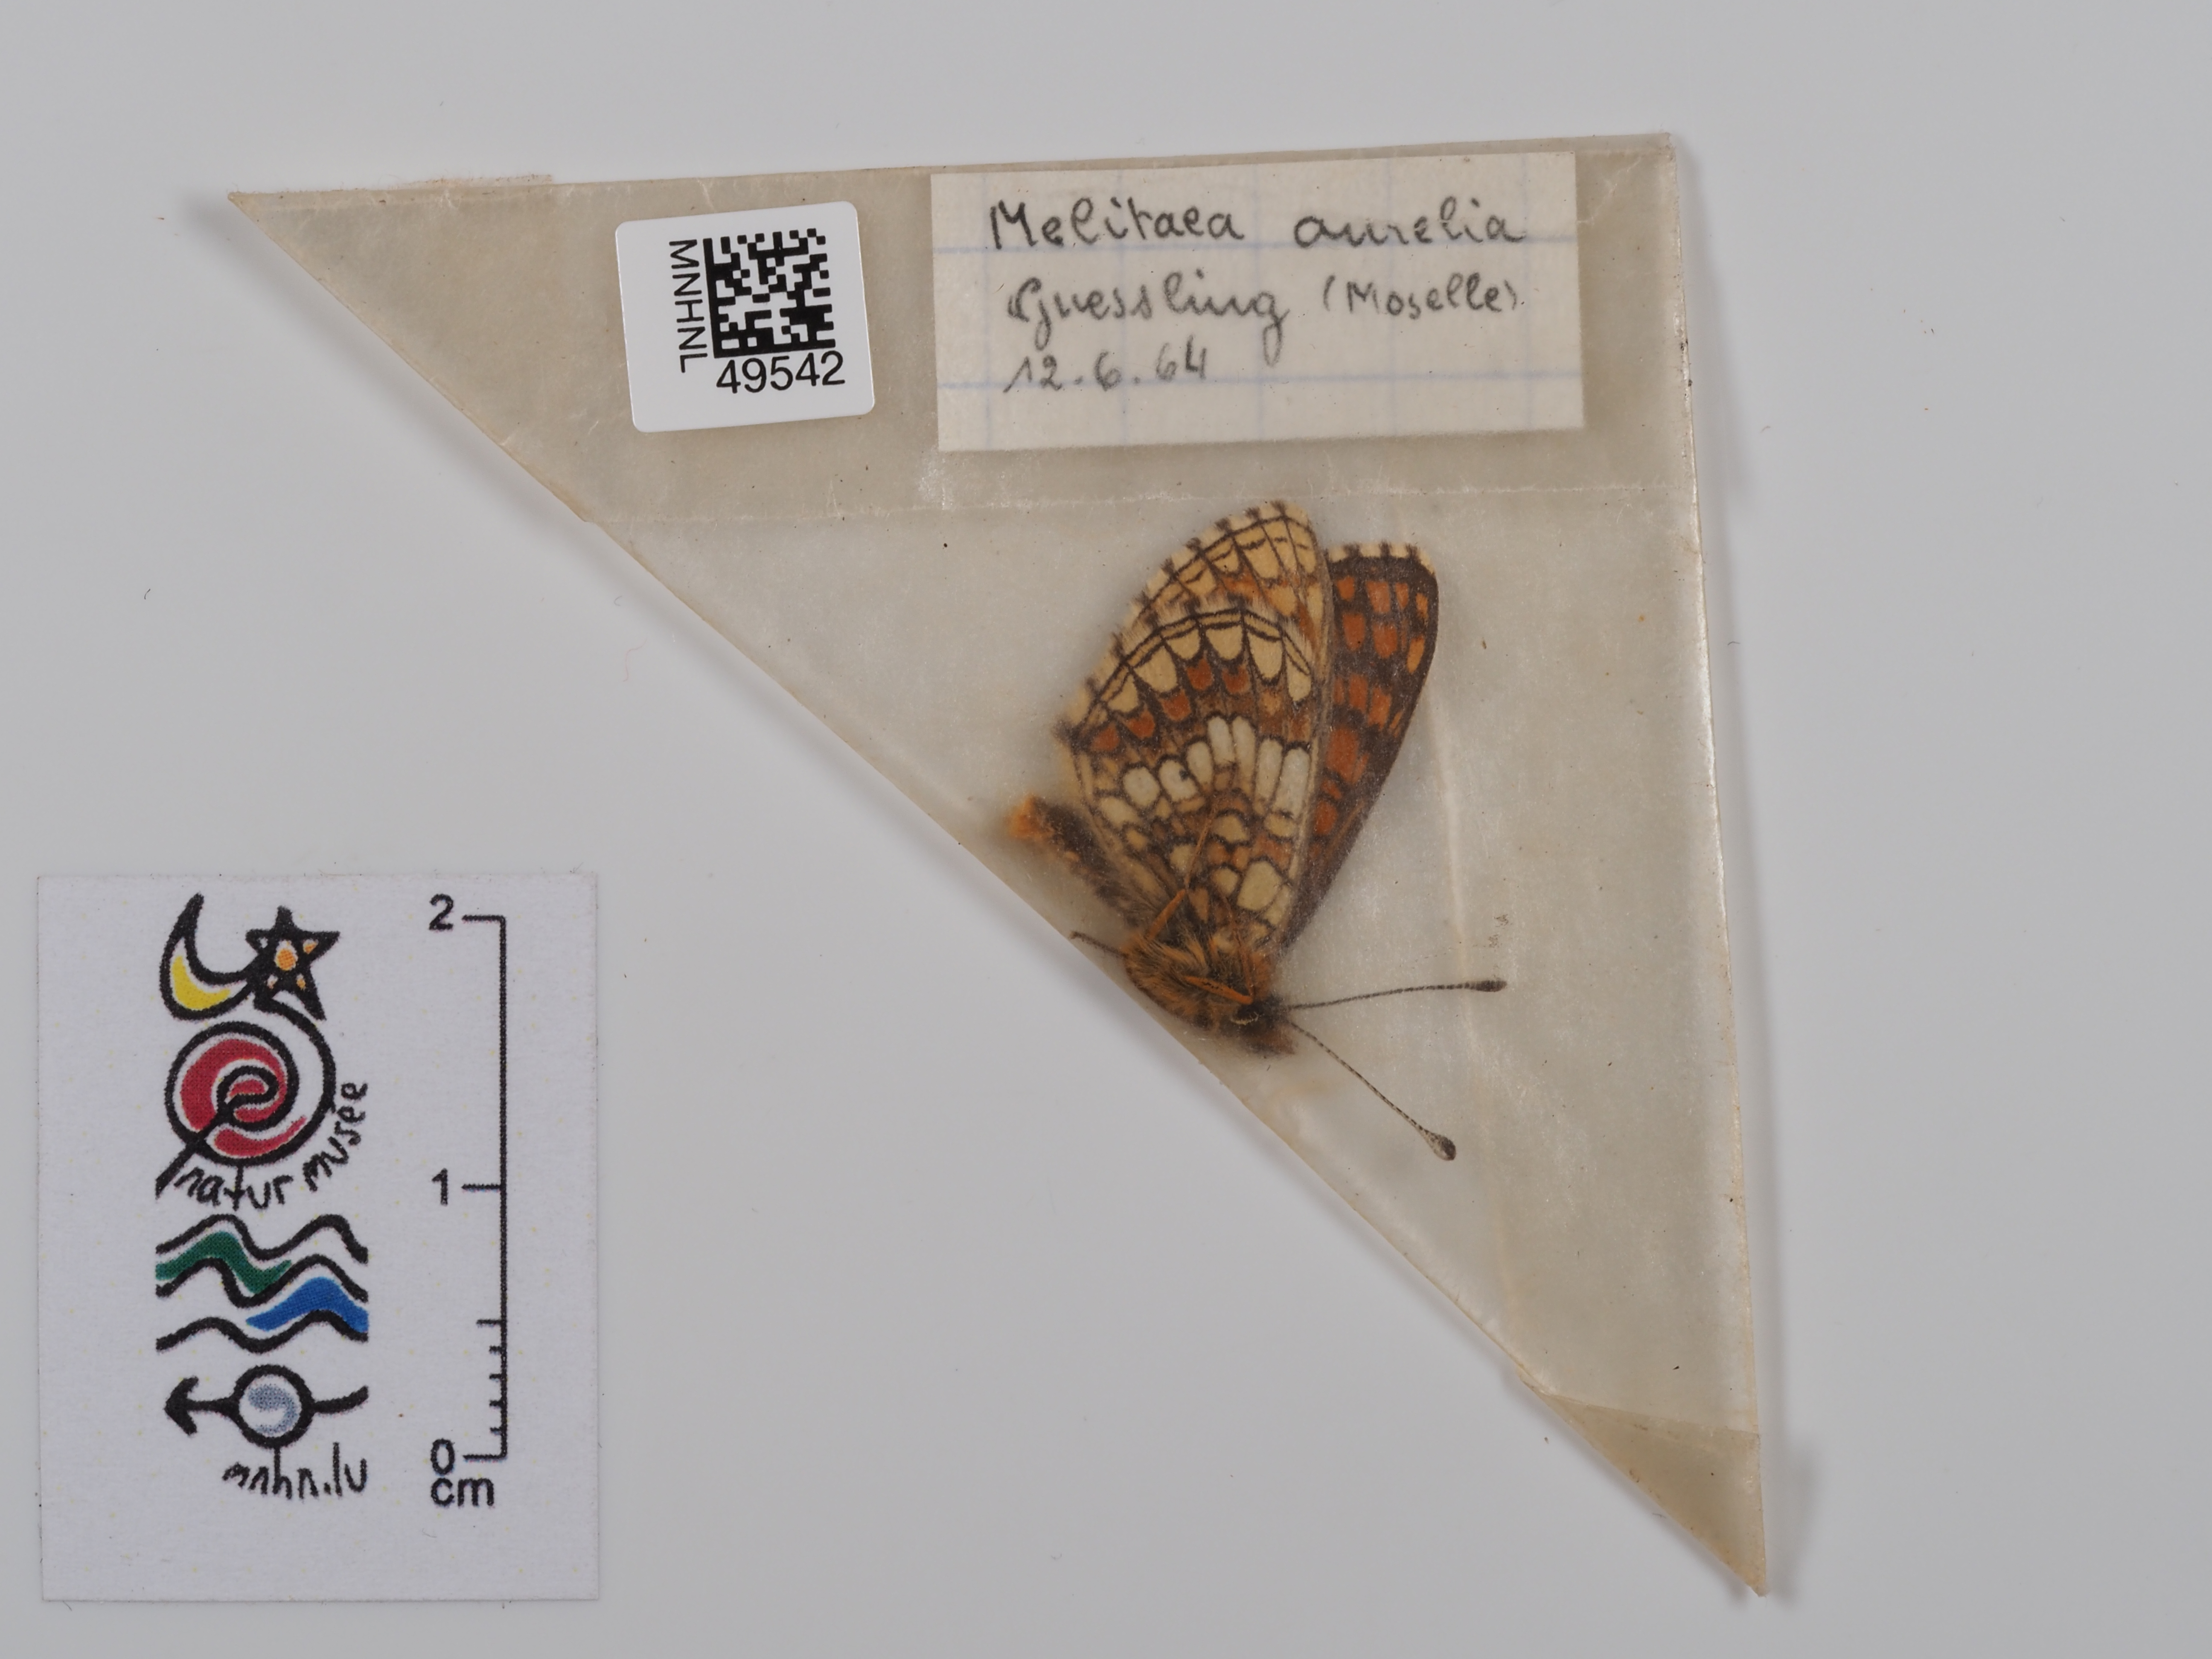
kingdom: Animalia
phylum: Arthropoda
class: Insecta
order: Lepidoptera
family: Nymphalidae
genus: Mellicta
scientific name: Mellicta aurelia
